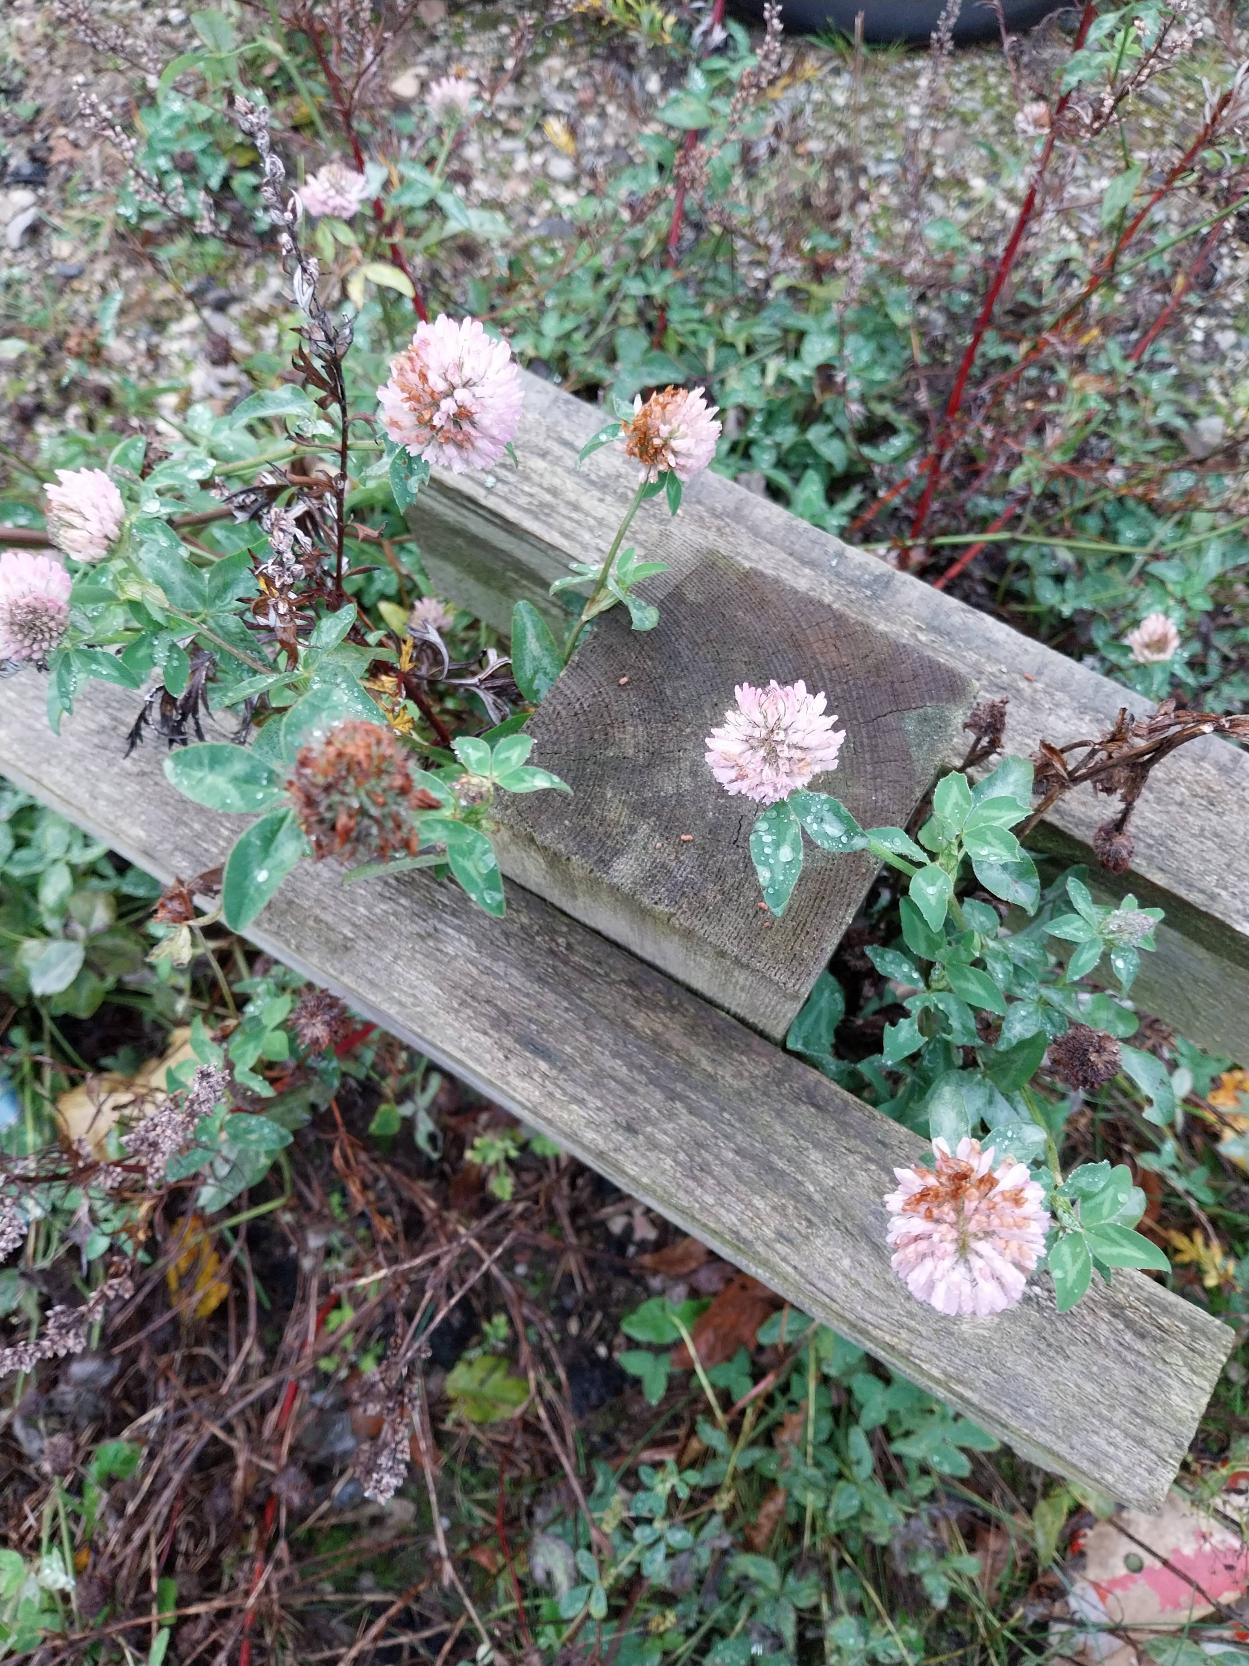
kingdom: Plantae
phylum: Tracheophyta
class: Magnoliopsida
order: Fabales
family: Fabaceae
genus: Trifolium
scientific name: Trifolium pratense
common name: Rød-kløver
